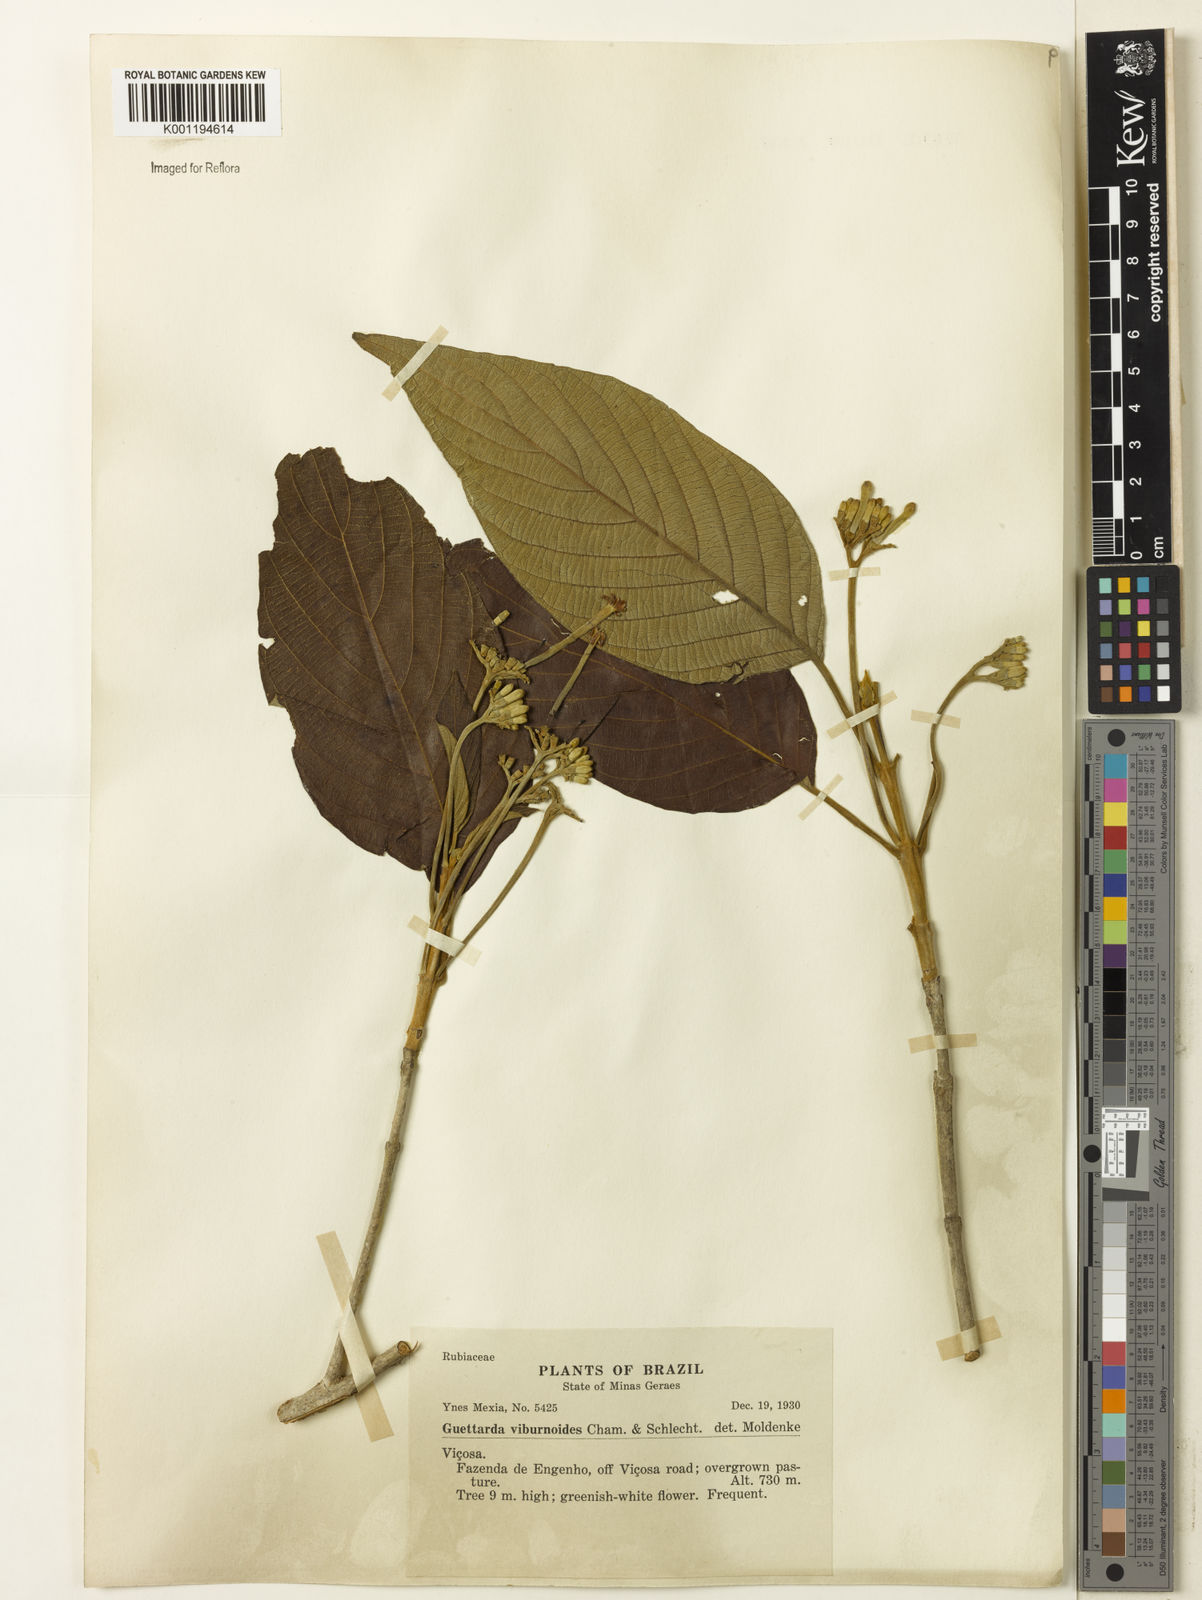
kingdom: Plantae
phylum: Tracheophyta
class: Magnoliopsida
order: Gentianales
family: Rubiaceae
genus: Guettarda
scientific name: Guettarda viburnoides
